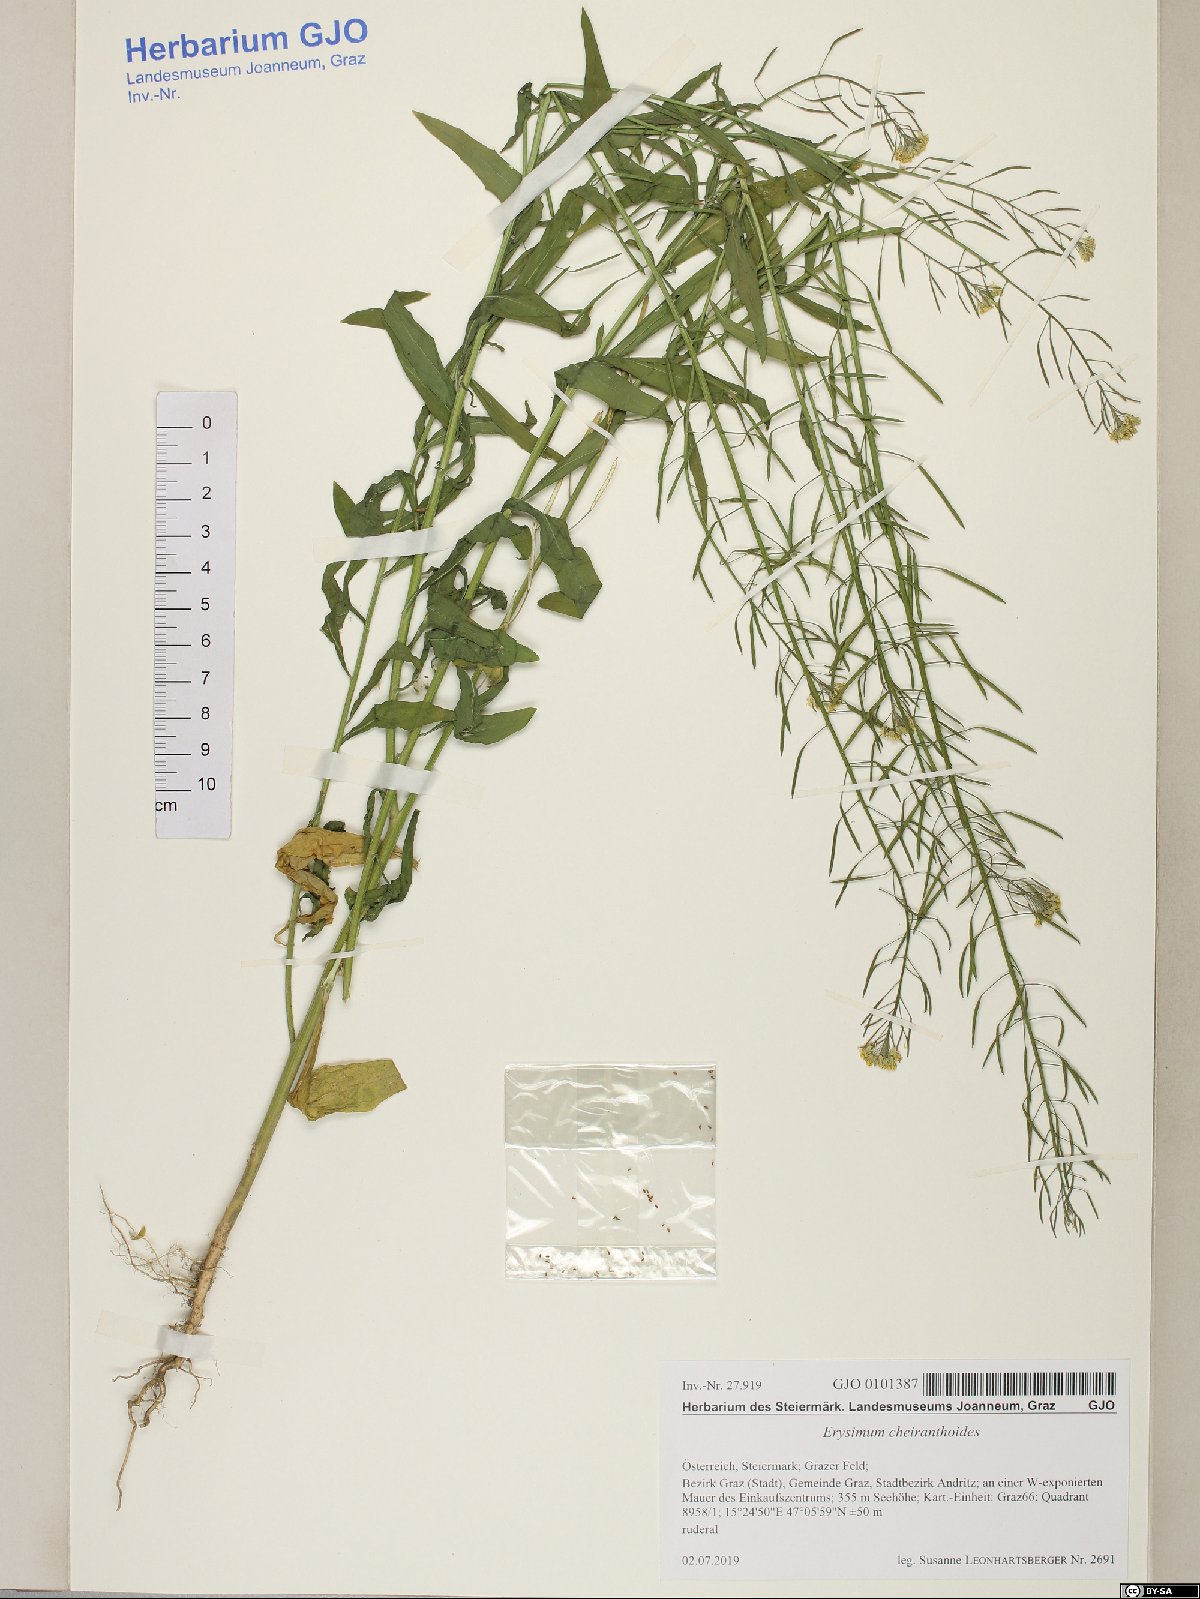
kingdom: Plantae
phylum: Tracheophyta
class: Magnoliopsida
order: Brassicales
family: Brassicaceae
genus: Erysimum
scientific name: Erysimum cheiranthoides
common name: Treacle mustard
